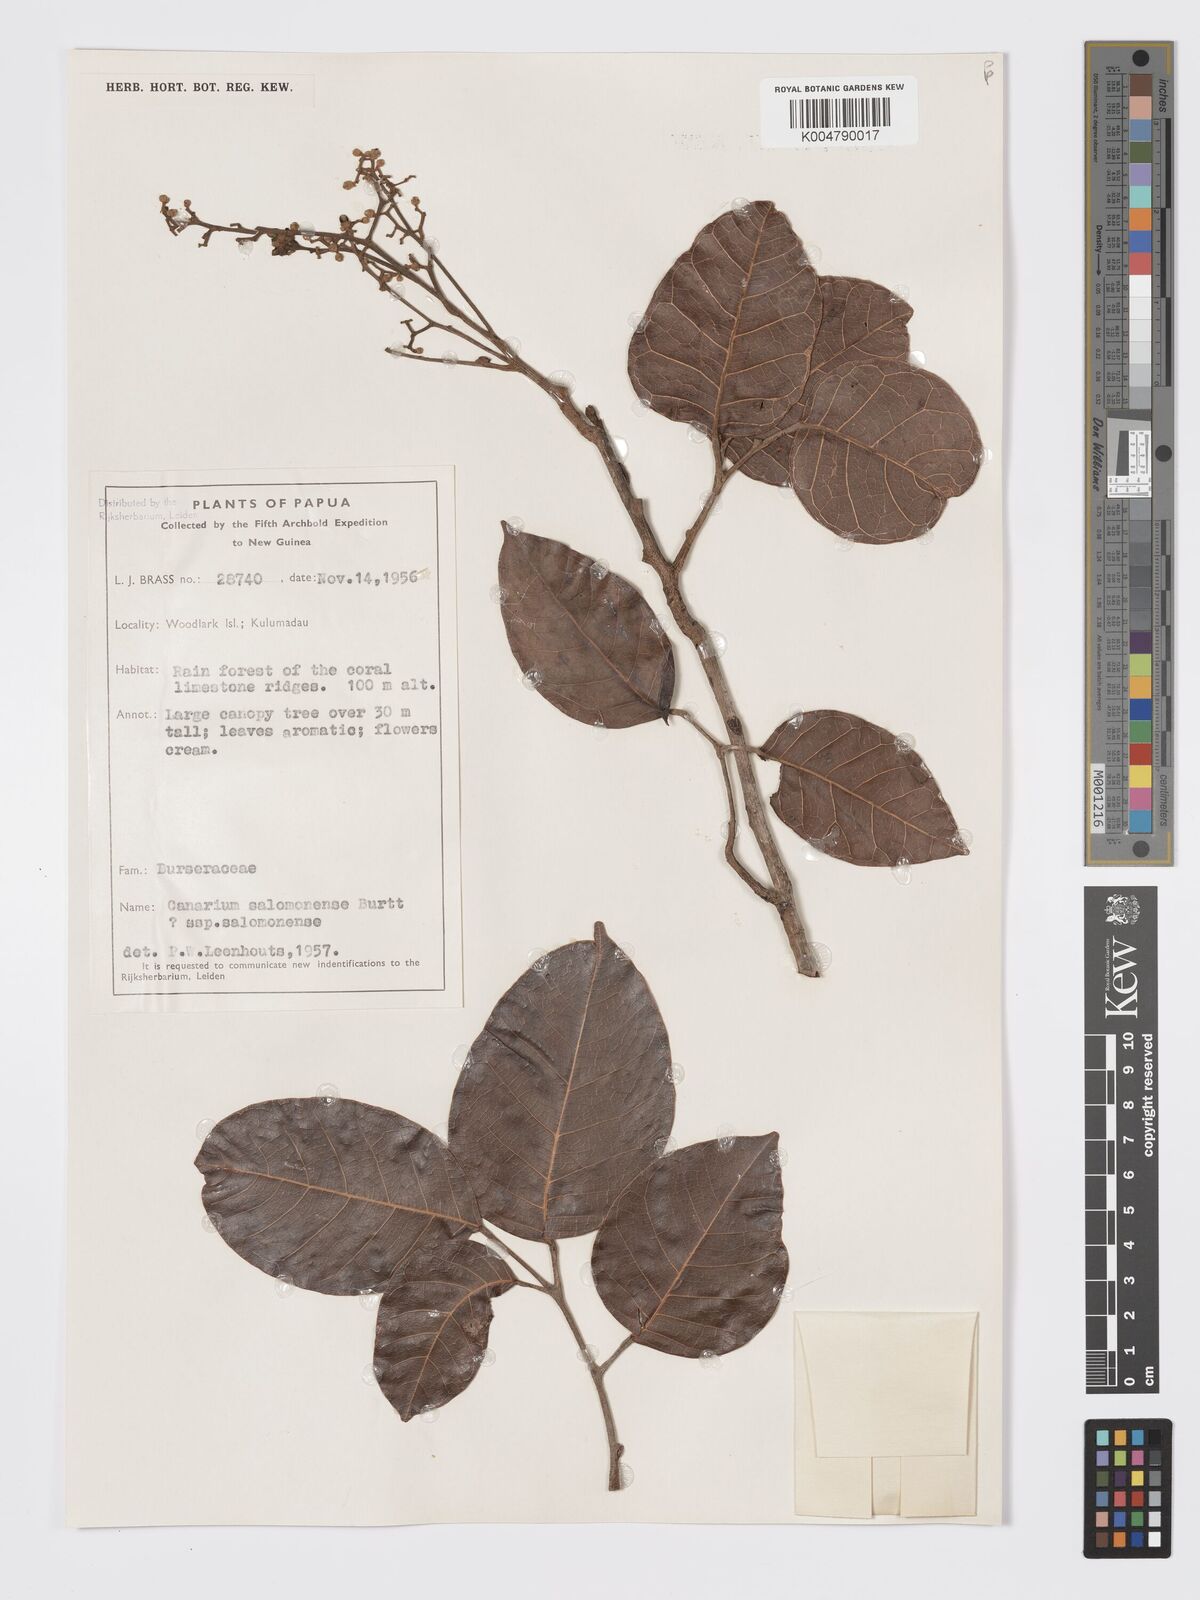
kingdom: Plantae
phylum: Tracheophyta
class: Magnoliopsida
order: Sapindales
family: Burseraceae
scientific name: Burseraceae
